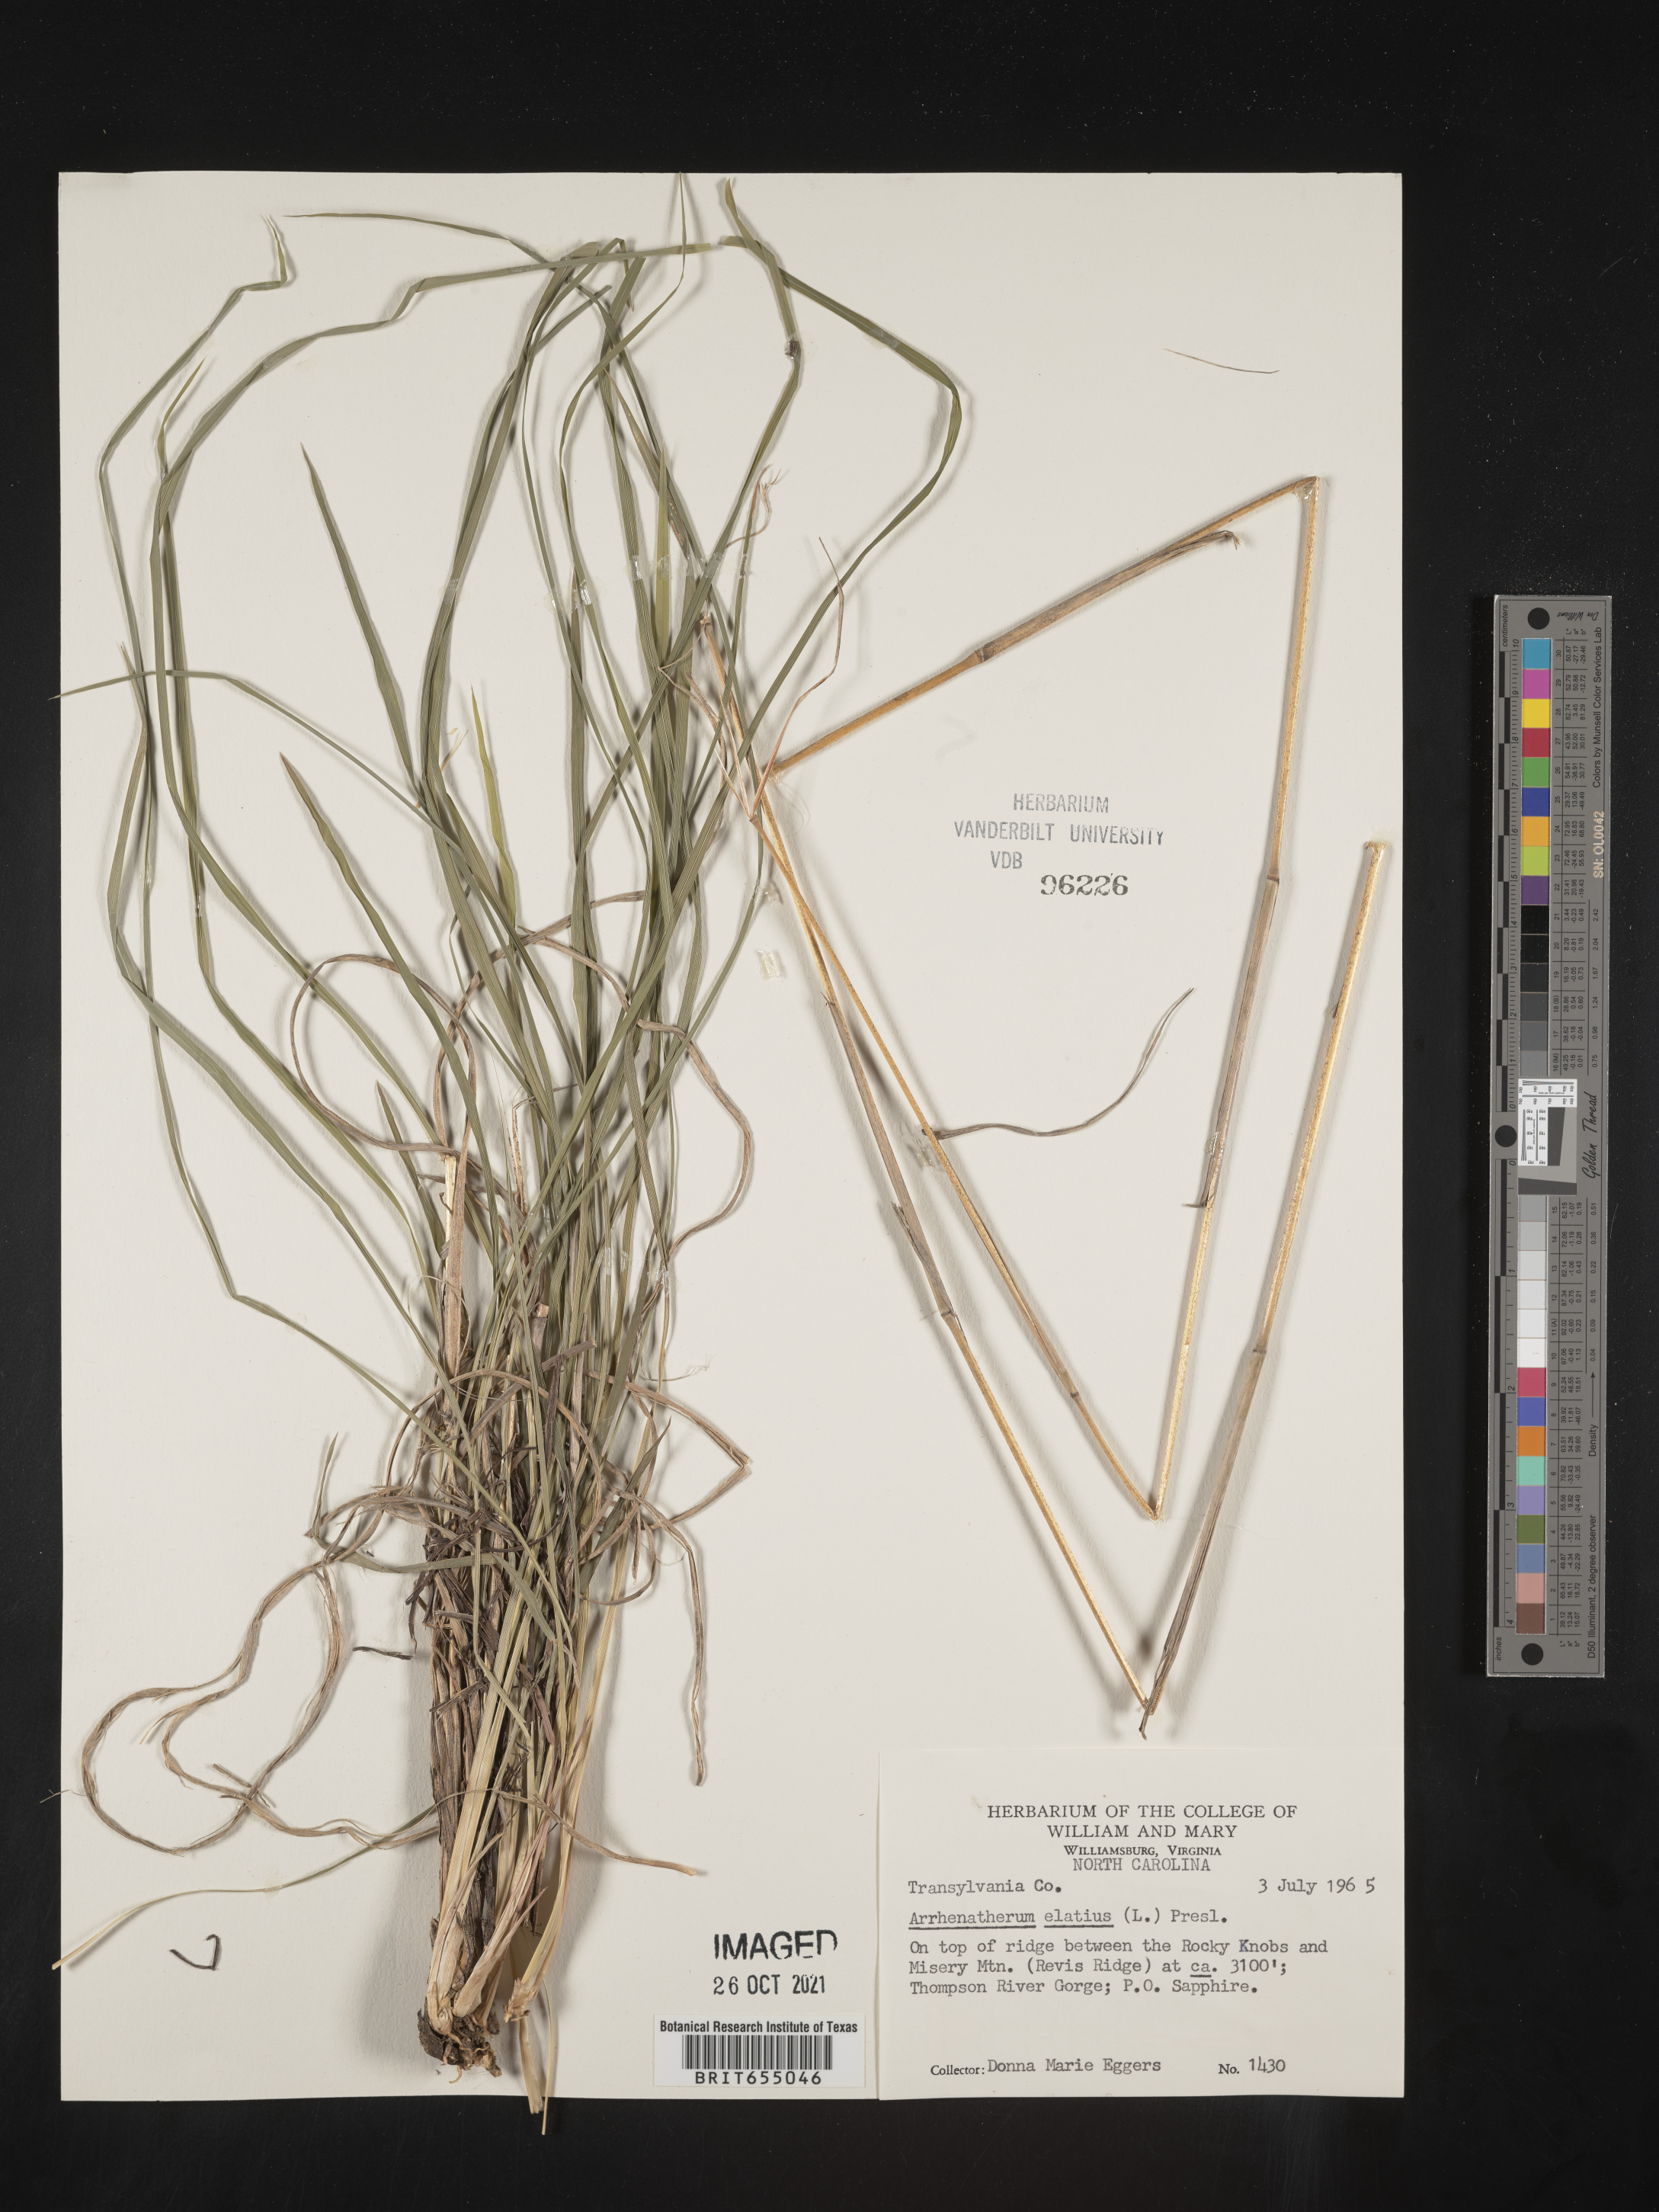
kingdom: Plantae
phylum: Tracheophyta
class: Liliopsida
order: Poales
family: Poaceae
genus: Arrhenatherum
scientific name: Arrhenatherum
